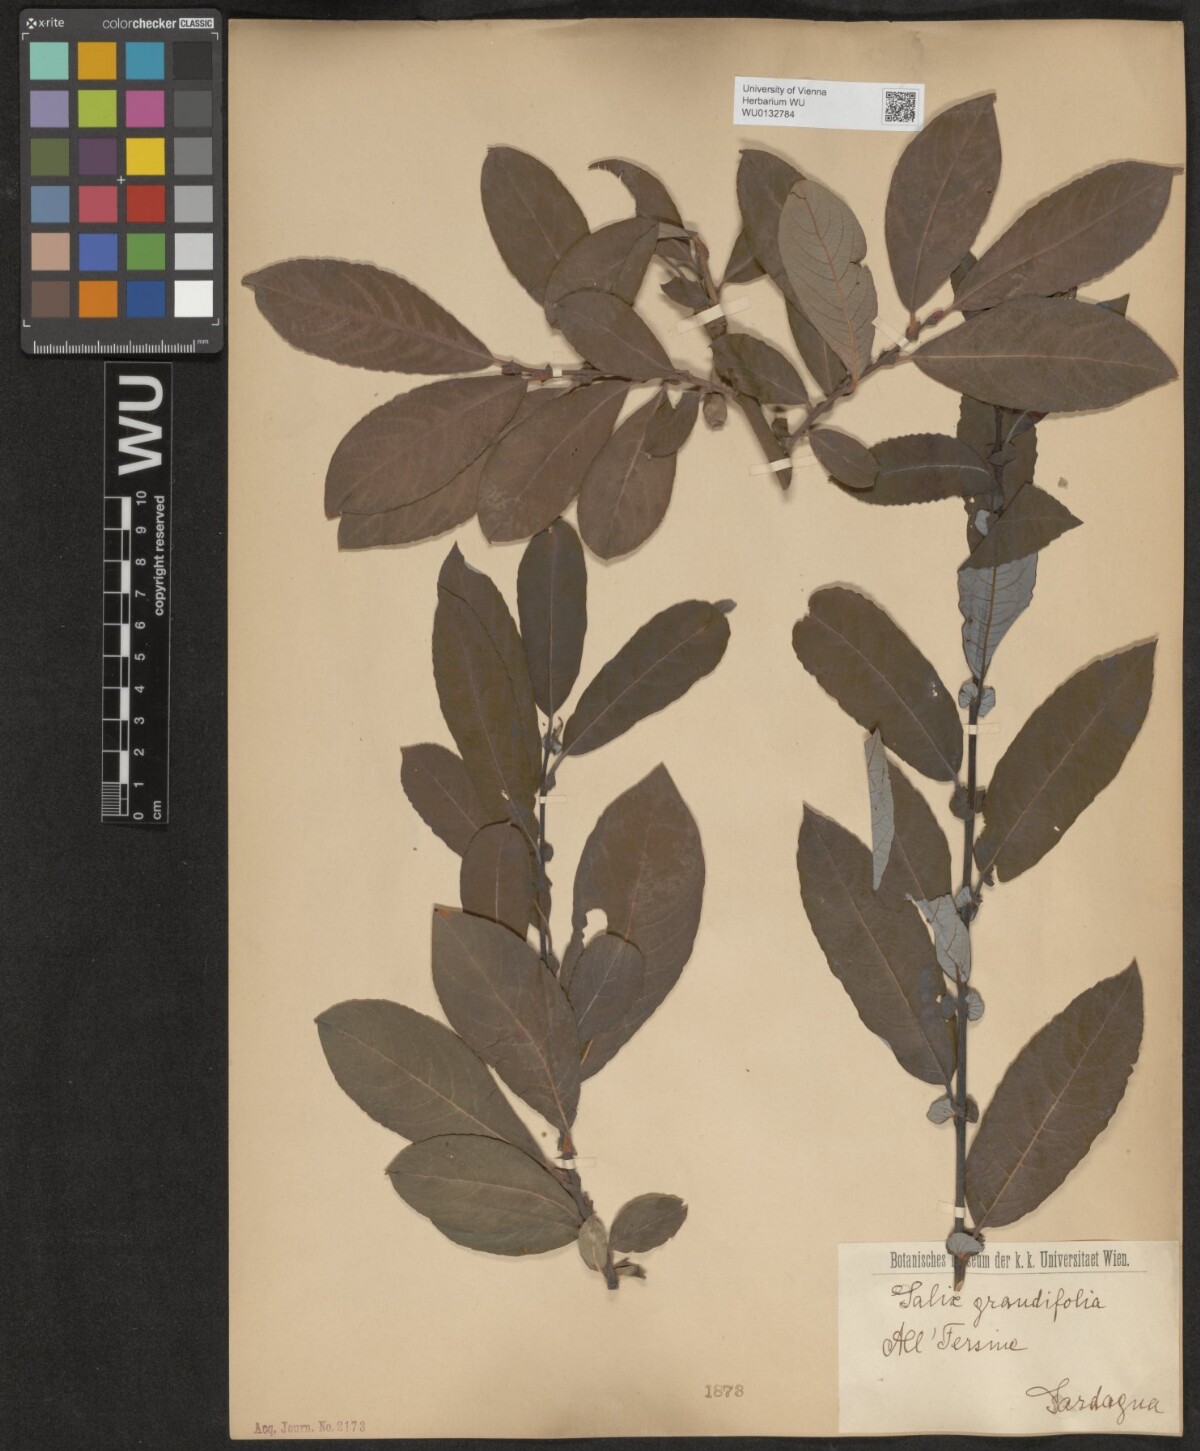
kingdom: Plantae
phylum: Tracheophyta
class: Magnoliopsida
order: Malpighiales
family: Salicaceae
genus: Salix
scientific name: Salix appendiculata
